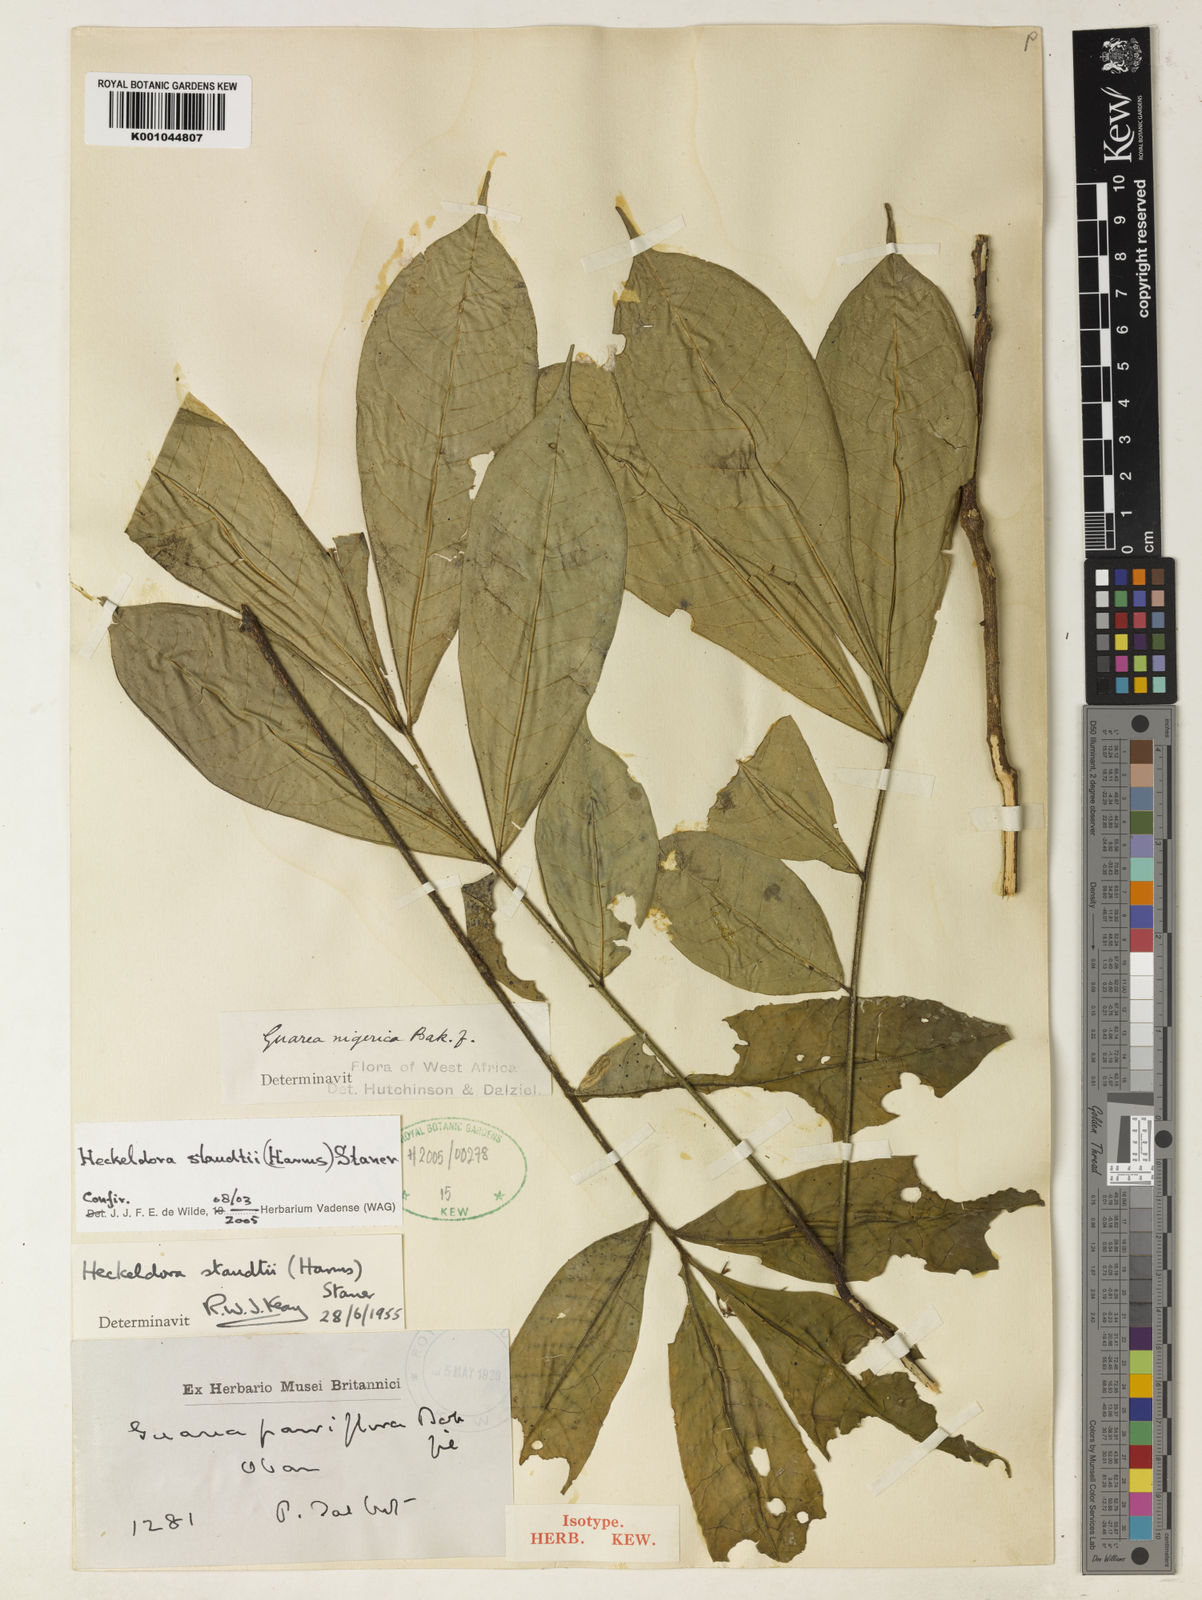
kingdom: Plantae
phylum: Tracheophyta
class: Magnoliopsida
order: Sapindales
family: Meliaceae
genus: Heckeldora
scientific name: Heckeldora staudtii
